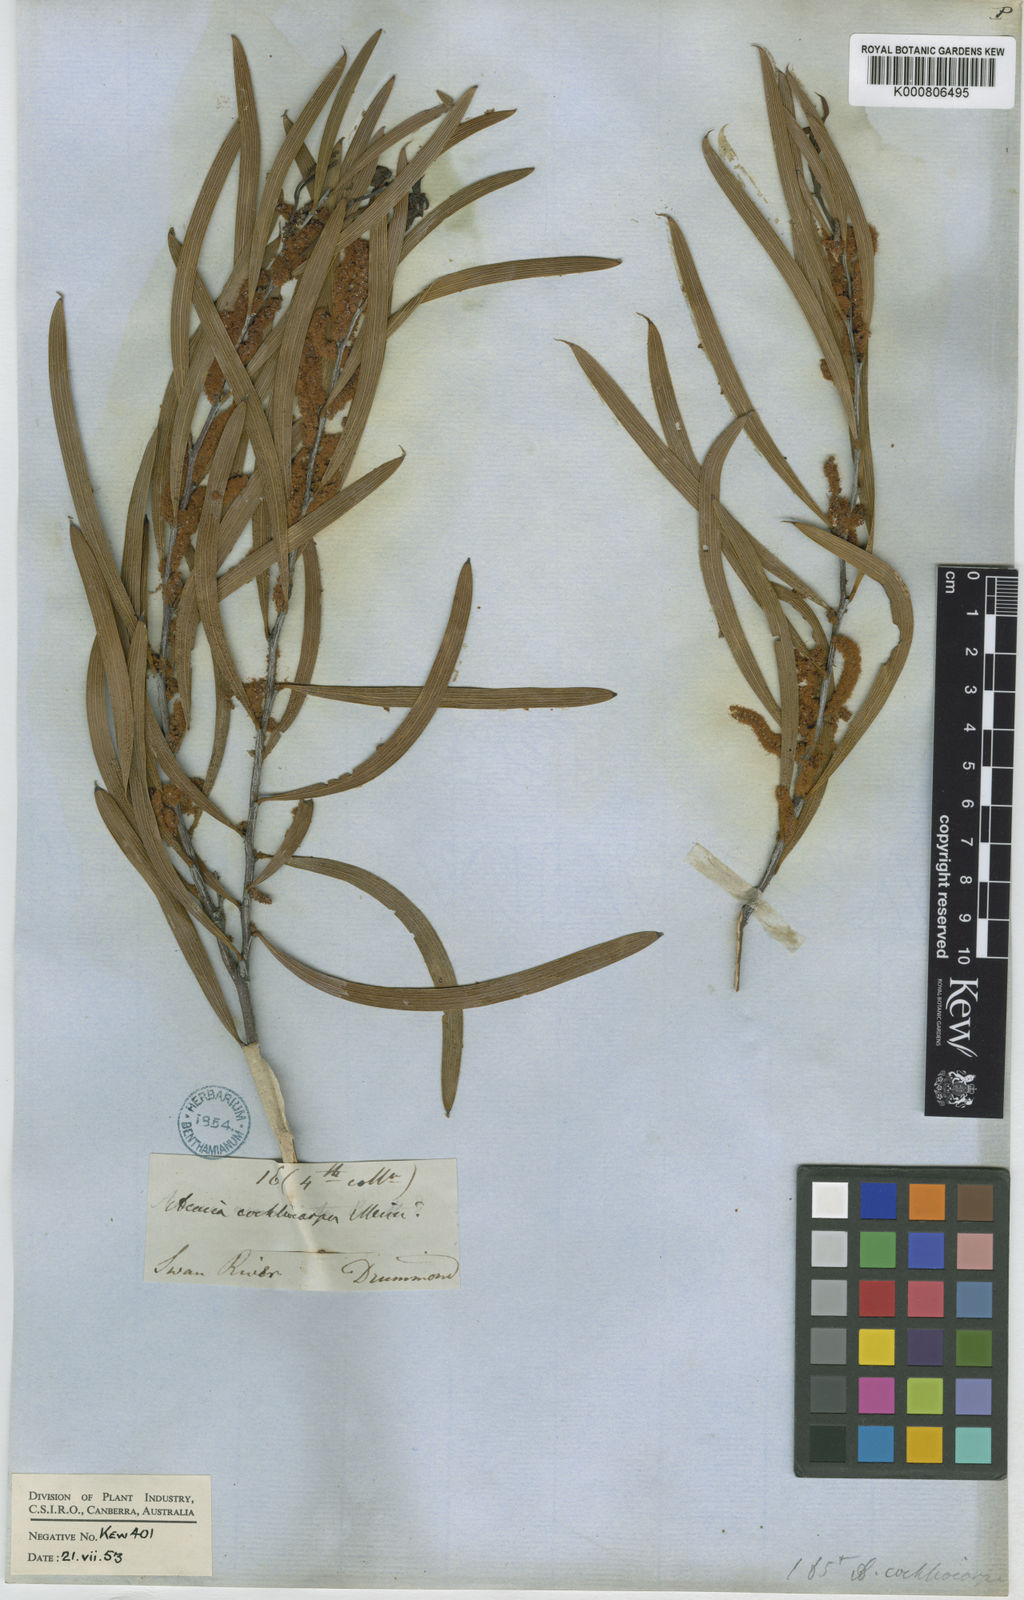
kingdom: Plantae
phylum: Tracheophyta
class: Magnoliopsida
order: Fabales
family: Fabaceae
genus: Acacia
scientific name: Acacia
